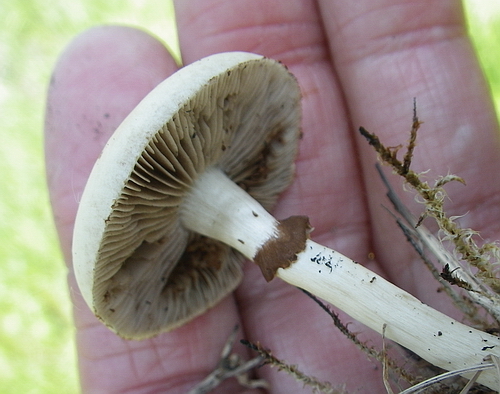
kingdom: Fungi
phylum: Basidiomycota
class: Agaricomycetes
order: Agaricales
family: Strophariaceae
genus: Agrocybe
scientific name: Agrocybe praecox
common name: tidlig agerhat
